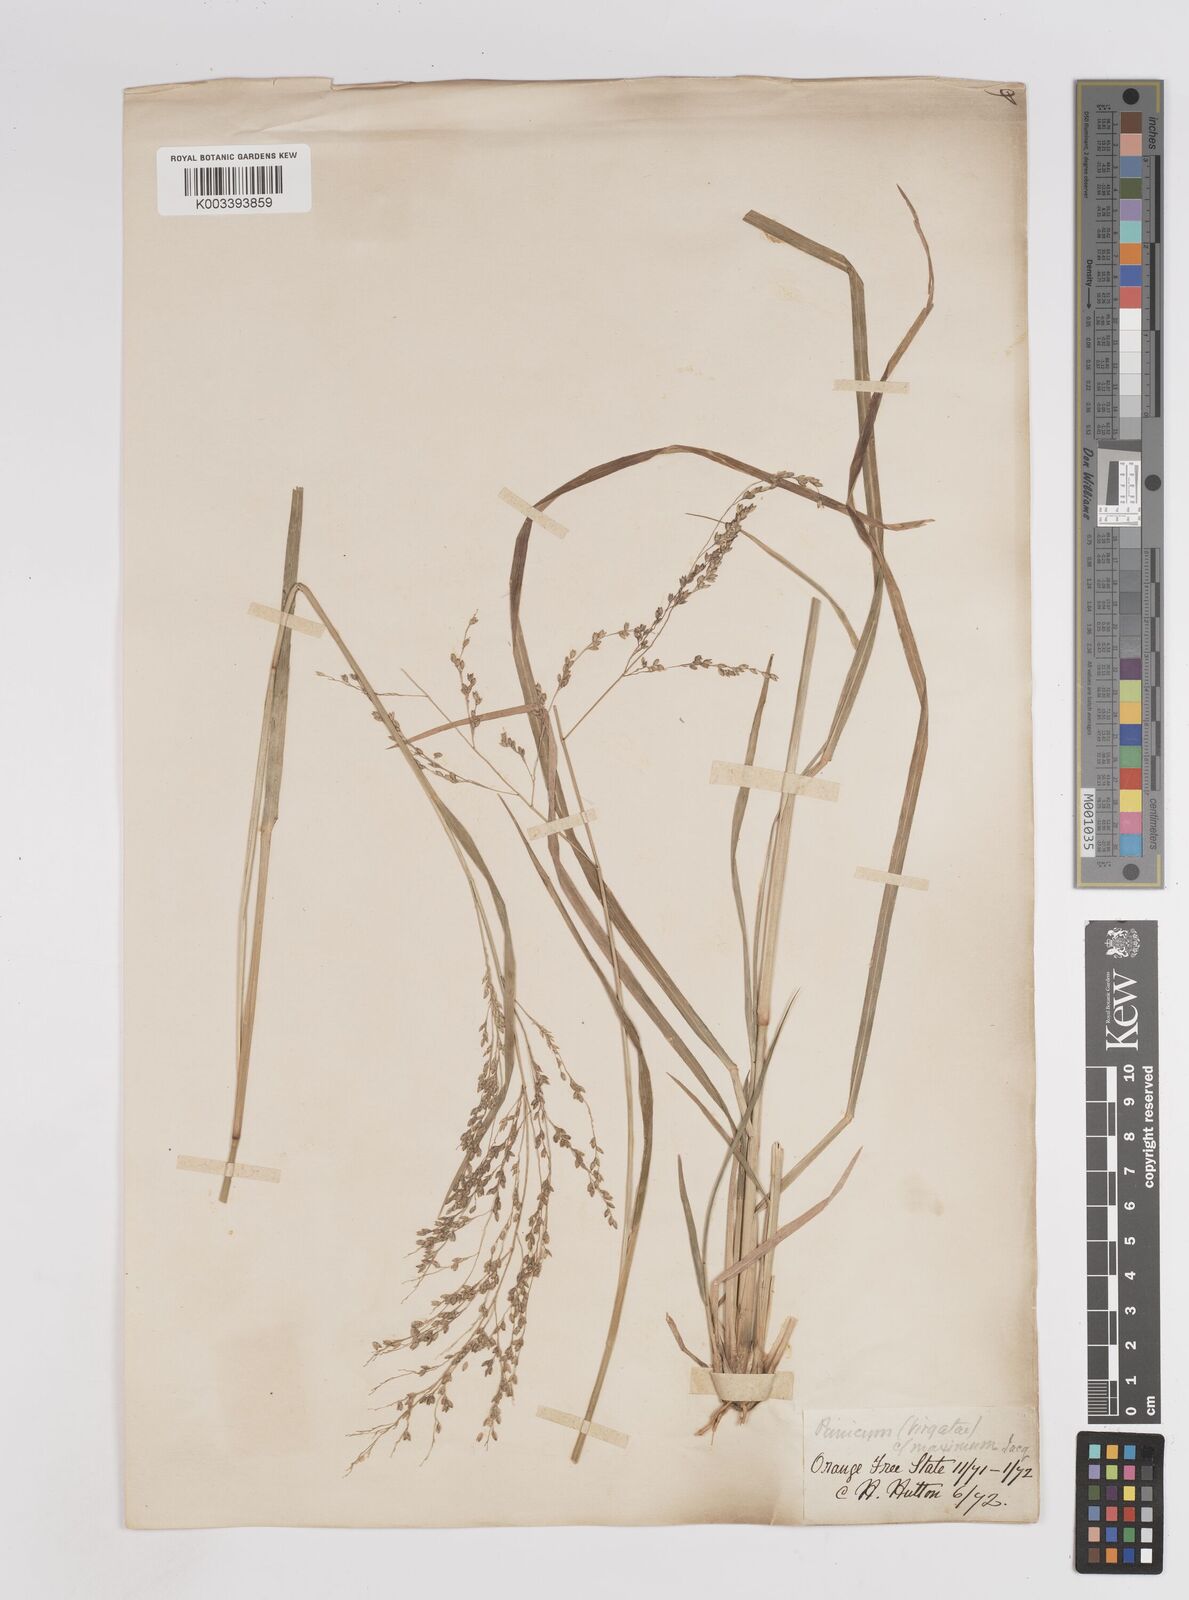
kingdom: Plantae
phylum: Tracheophyta
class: Liliopsida
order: Poales
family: Poaceae
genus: Panicum
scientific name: Panicum stapfianum
